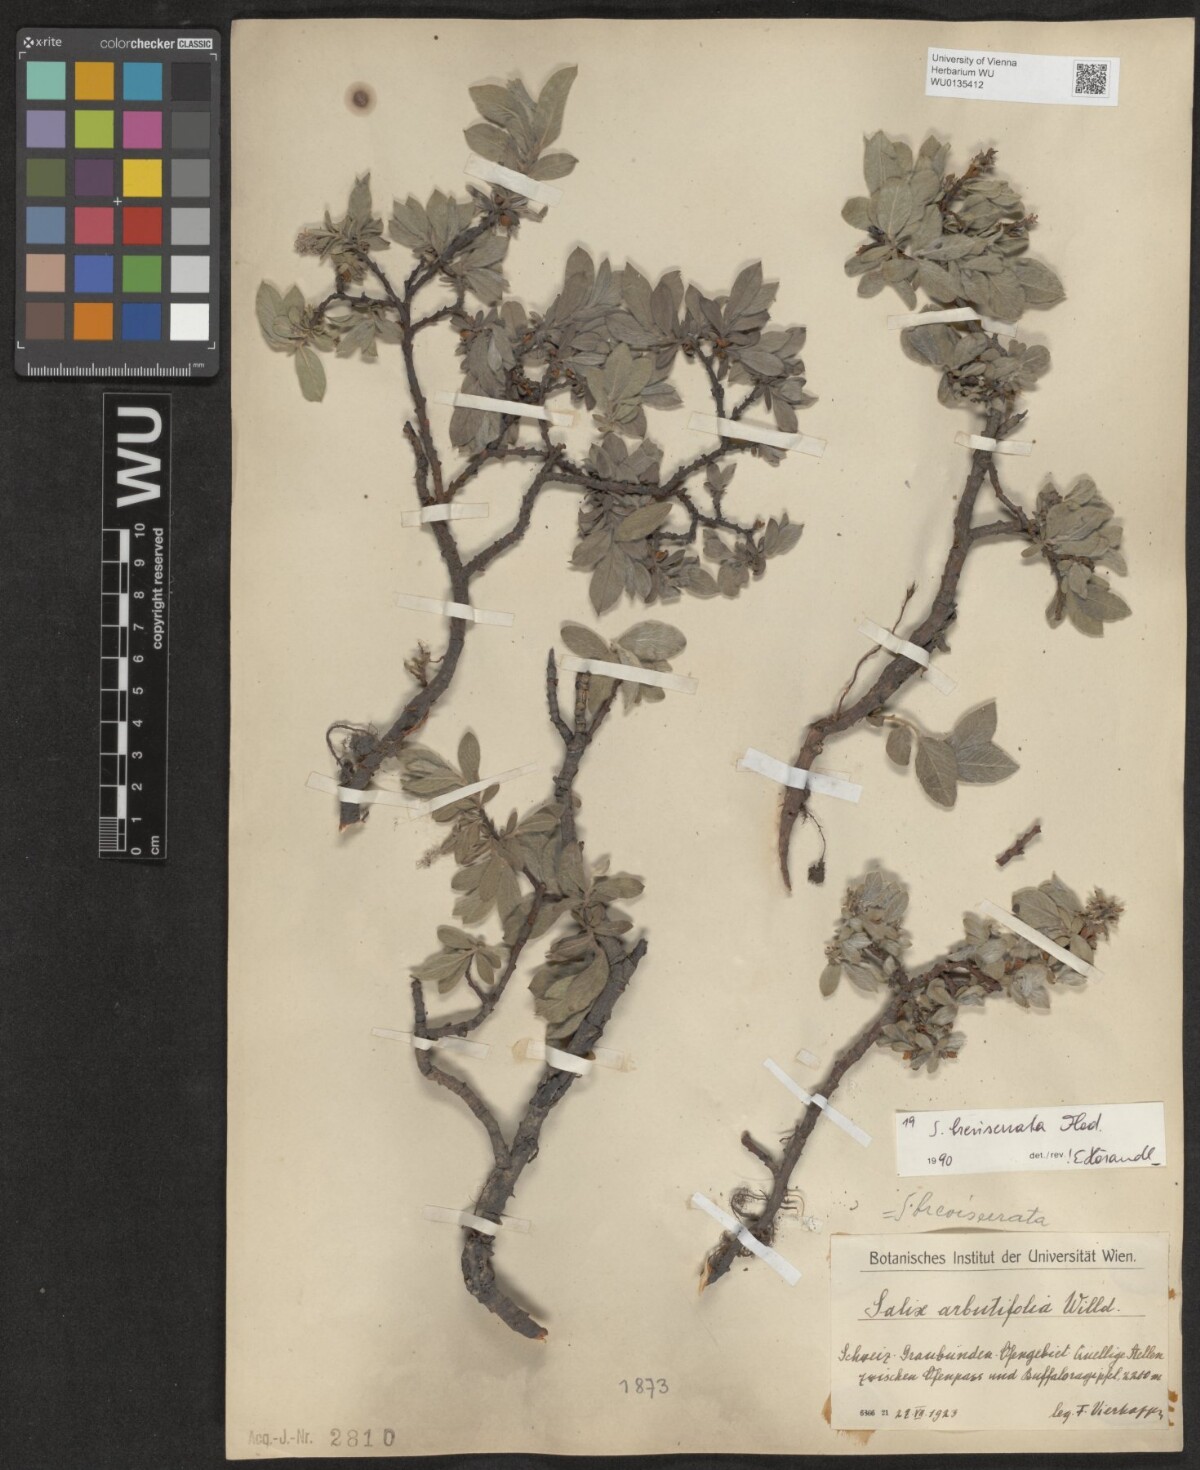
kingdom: Plantae
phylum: Tracheophyta
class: Magnoliopsida
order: Malpighiales
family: Salicaceae
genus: Salix
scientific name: Salix breviserrata
